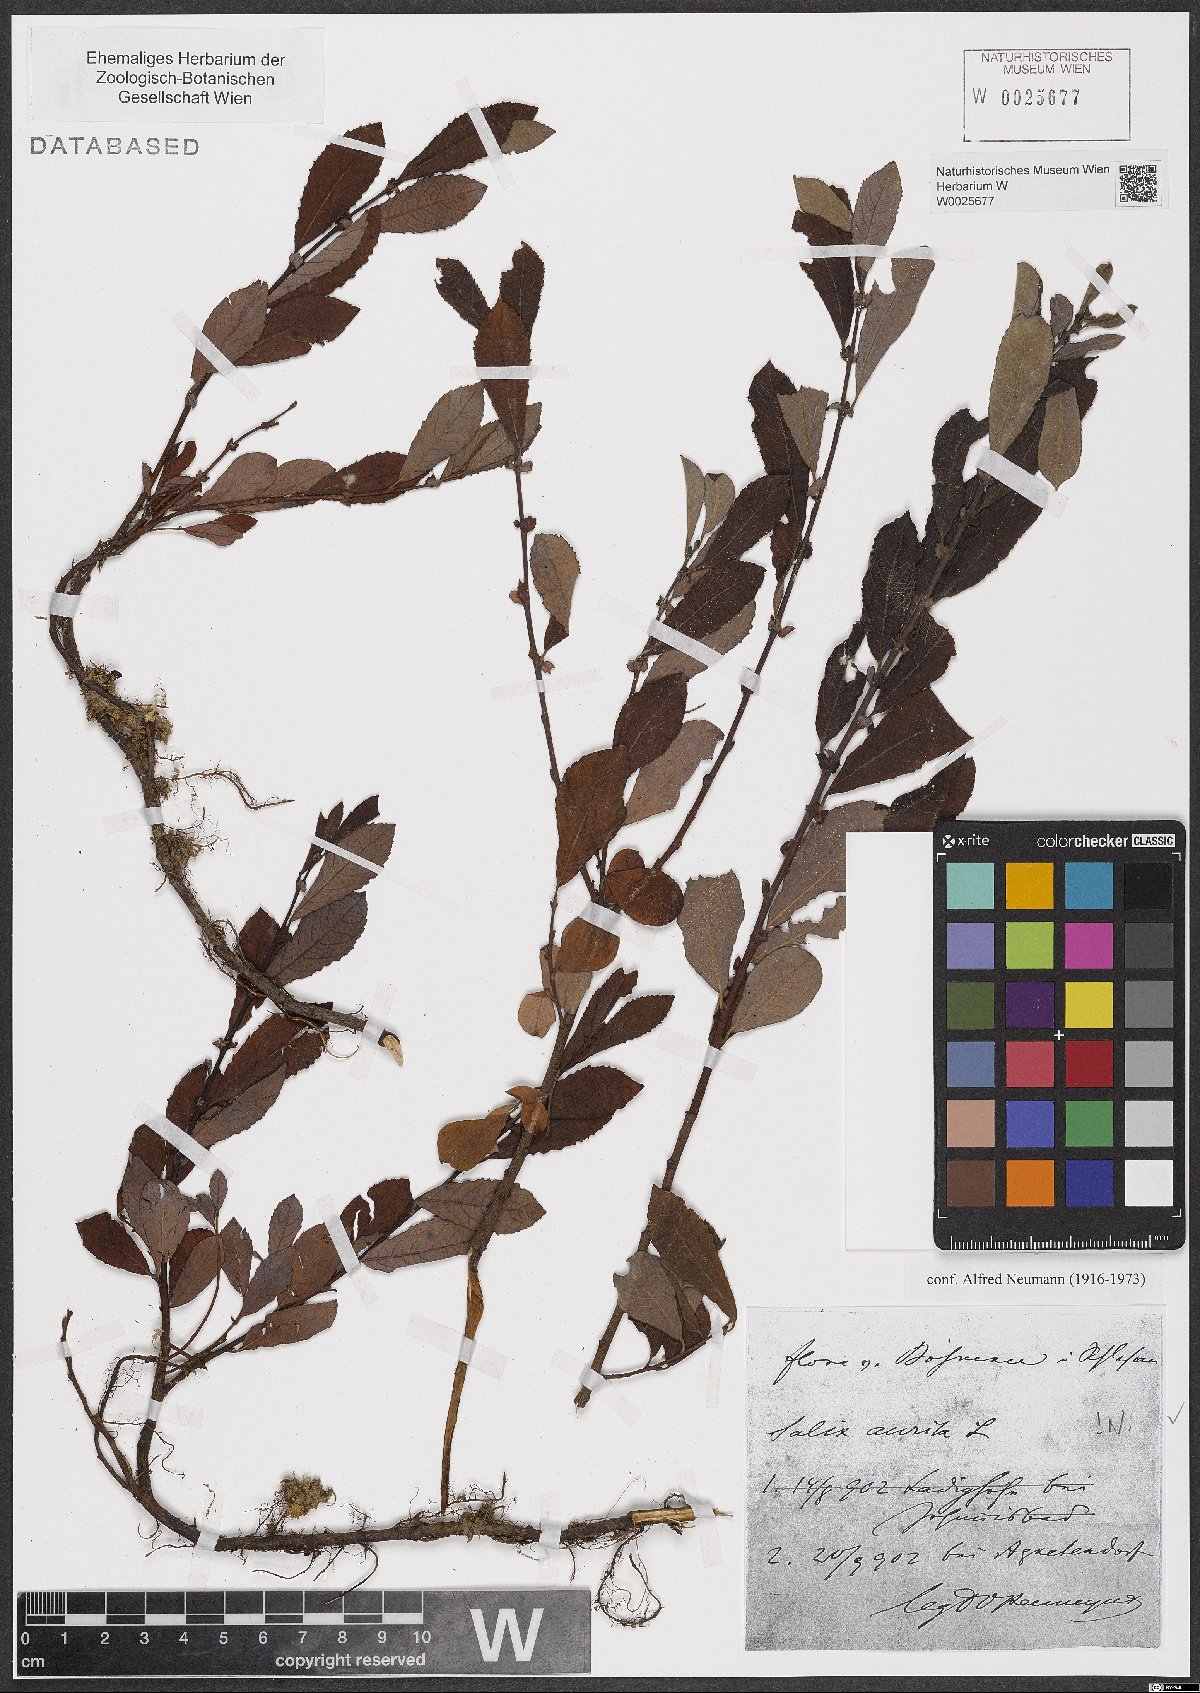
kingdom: Plantae
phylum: Tracheophyta
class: Magnoliopsida
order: Malpighiales
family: Salicaceae
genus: Salix
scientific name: Salix aurita
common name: Eared willow
